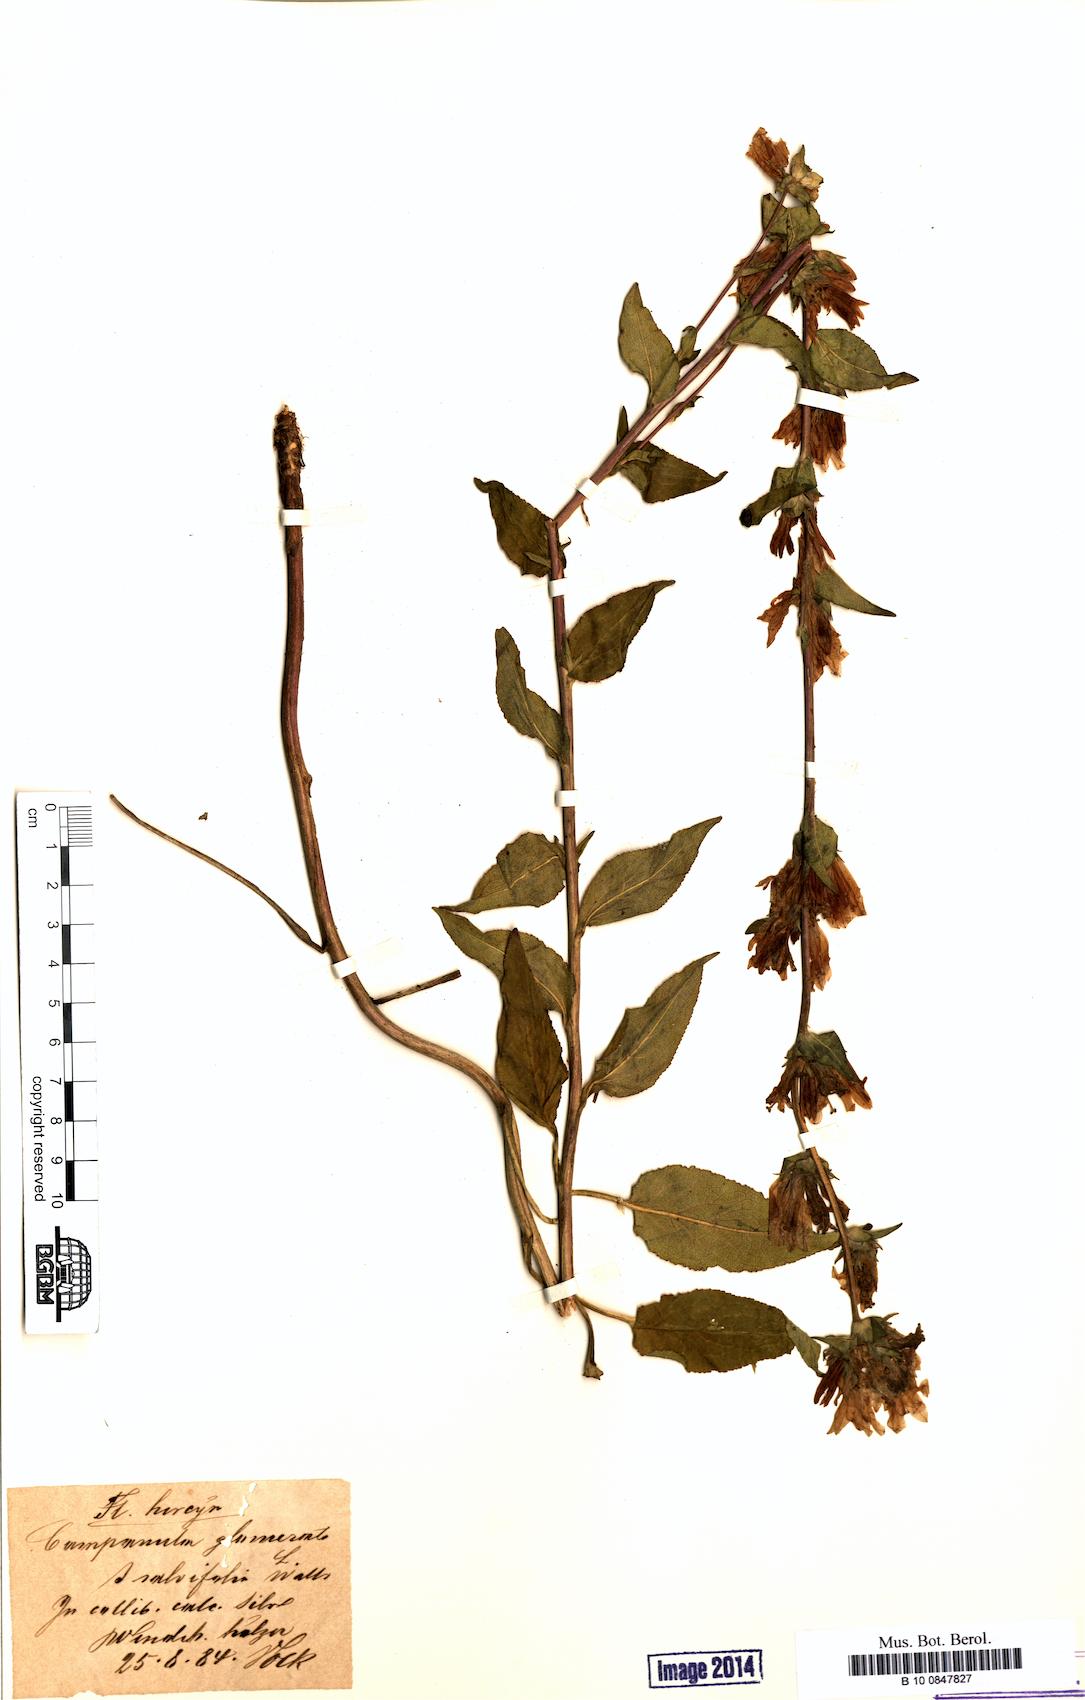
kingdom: Plantae
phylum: Tracheophyta
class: Magnoliopsida
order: Asterales
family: Campanulaceae
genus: Campanula
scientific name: Campanula glomerata
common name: Clustered bellflower
